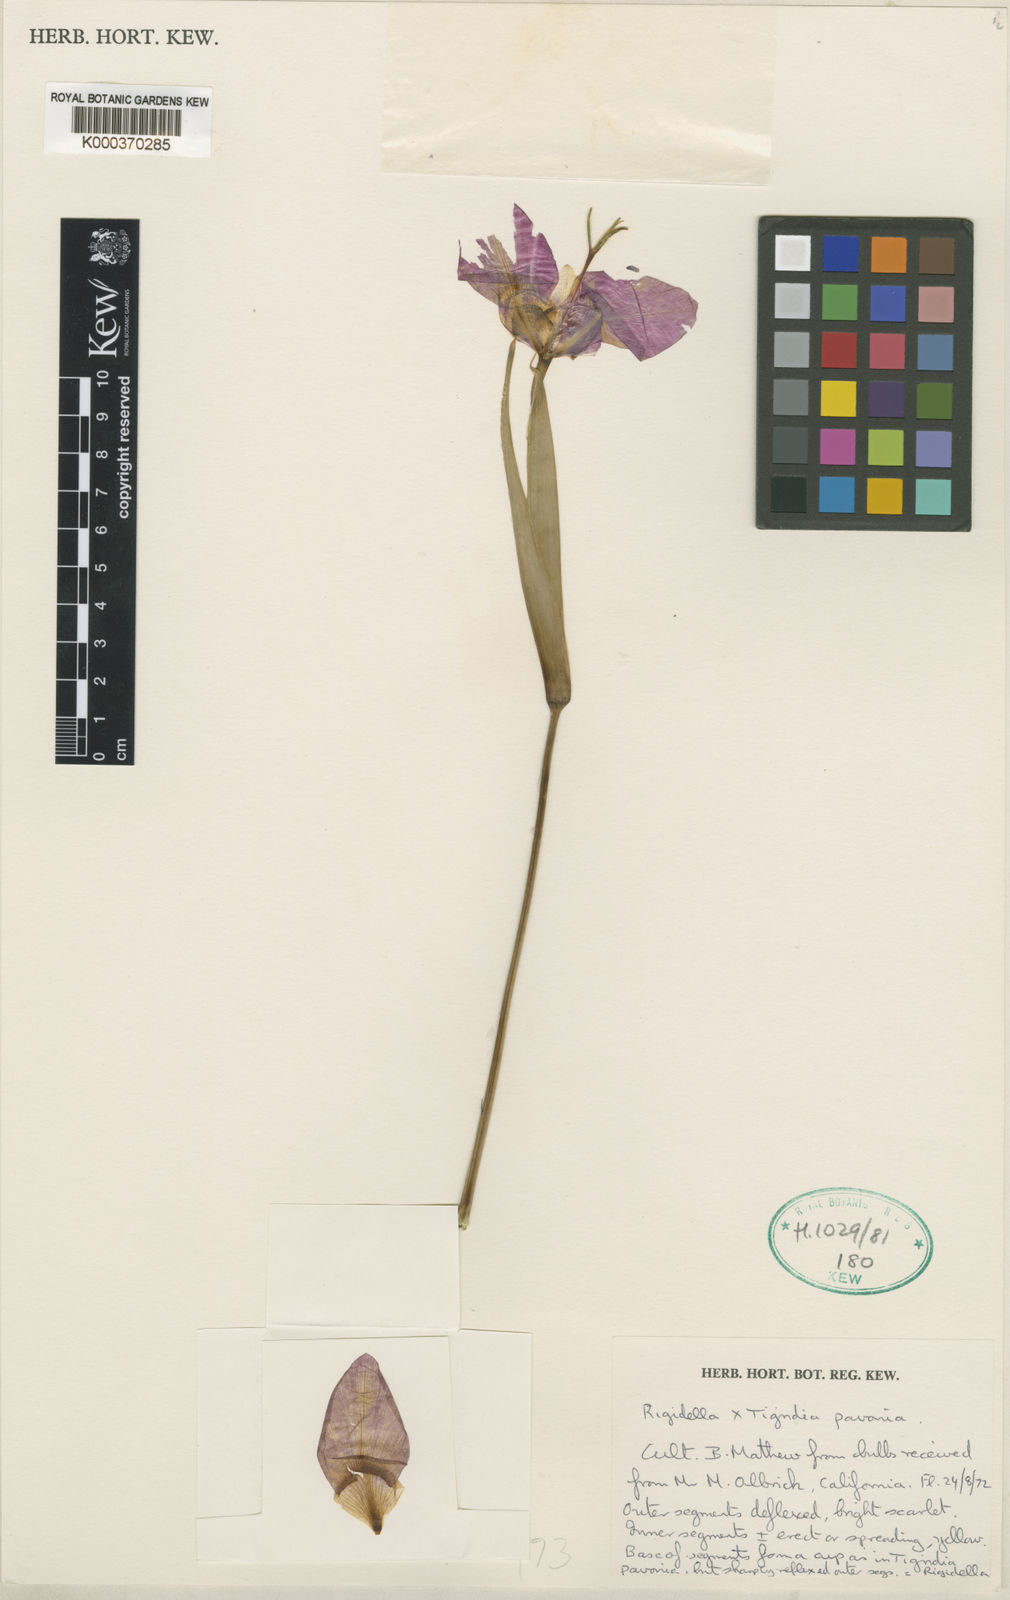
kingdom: Animalia
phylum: Arthropoda
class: Ostracoda
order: Palaeocopida
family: Ctenonotellidae
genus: Rigidella
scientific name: Rigidella
